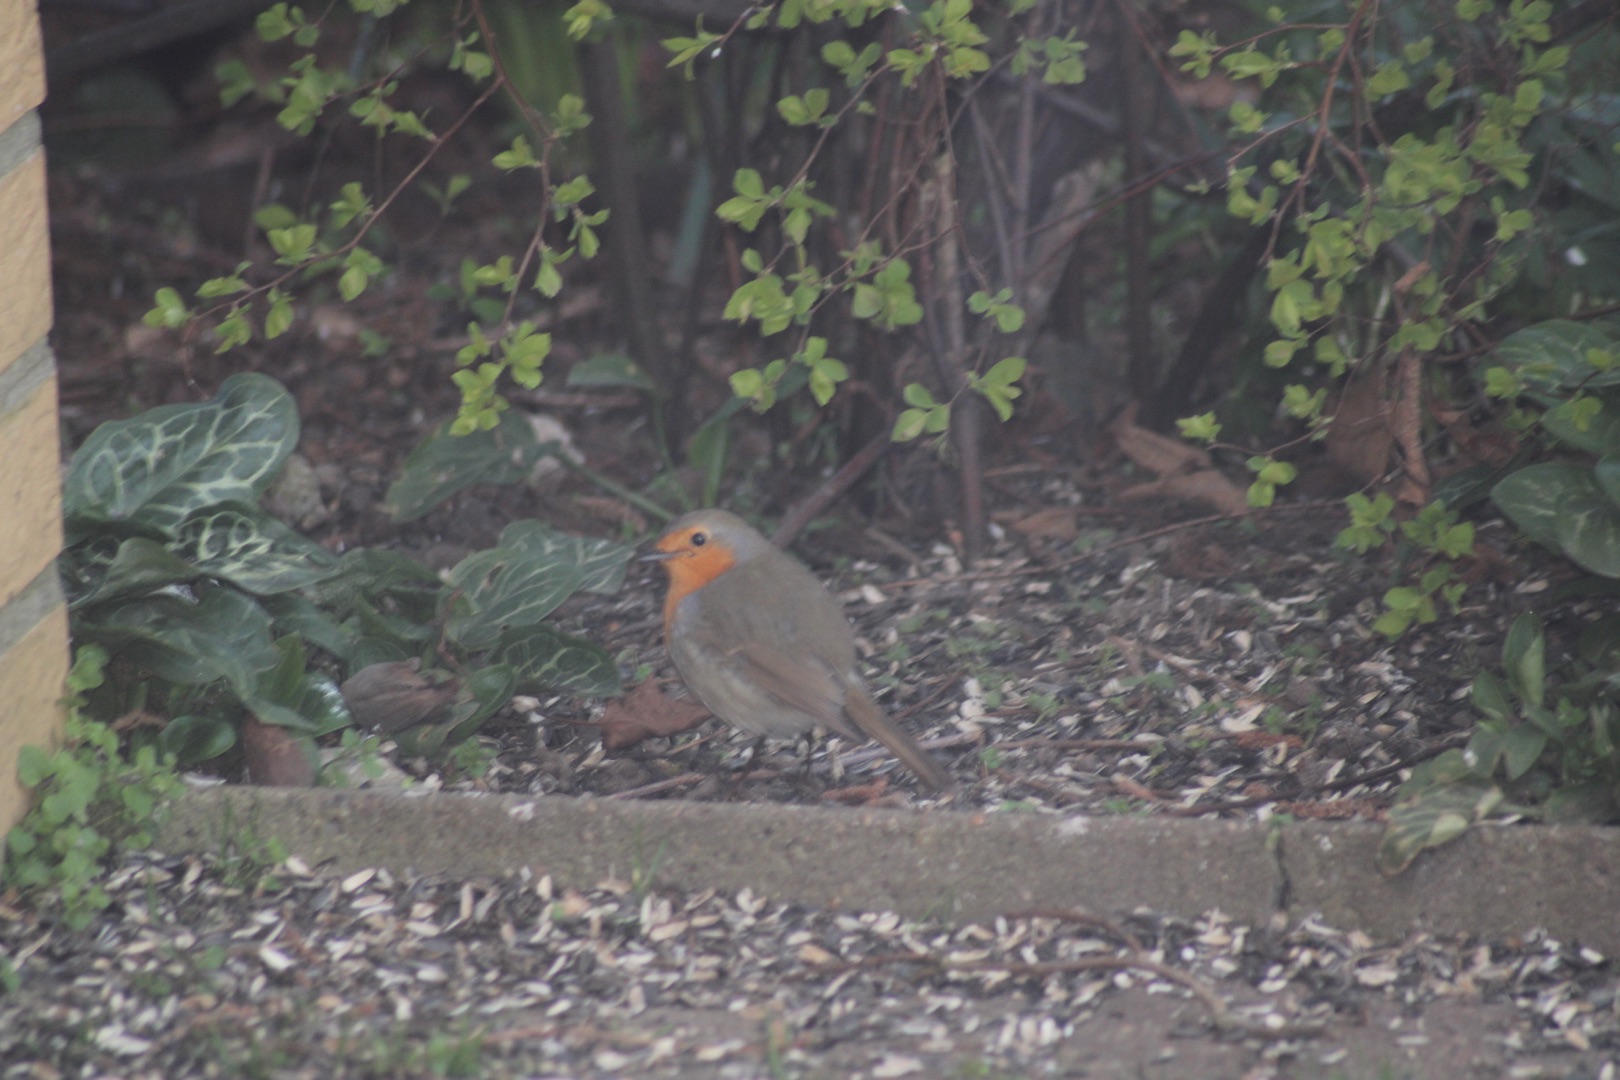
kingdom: Animalia
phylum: Chordata
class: Aves
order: Passeriformes
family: Muscicapidae
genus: Erithacus
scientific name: Erithacus rubecula
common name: Rødhals/rødkælk
